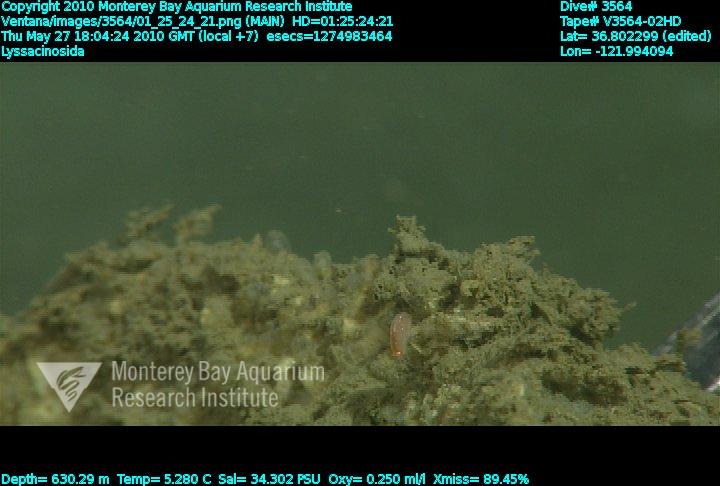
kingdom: Animalia
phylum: Porifera
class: Hexactinellida
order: Lyssacinosida
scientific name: Lyssacinosida
